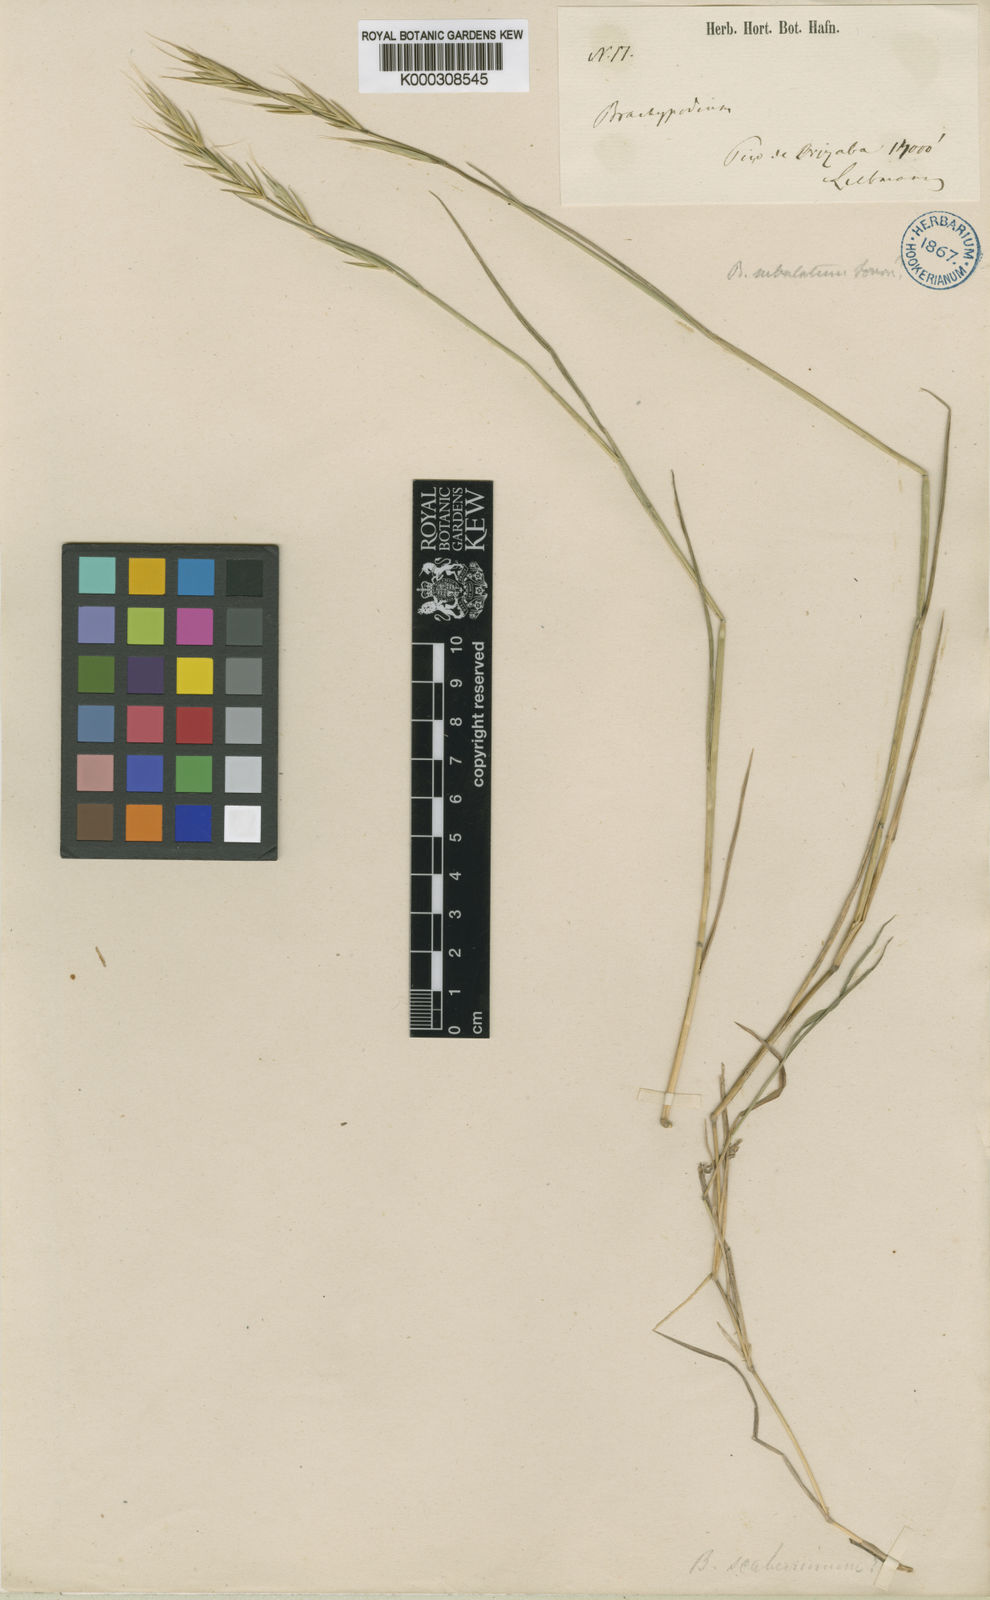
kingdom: Plantae
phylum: Tracheophyta
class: Liliopsida
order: Poales
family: Poaceae
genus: Brachypodium
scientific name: Brachypodium mexicanum
